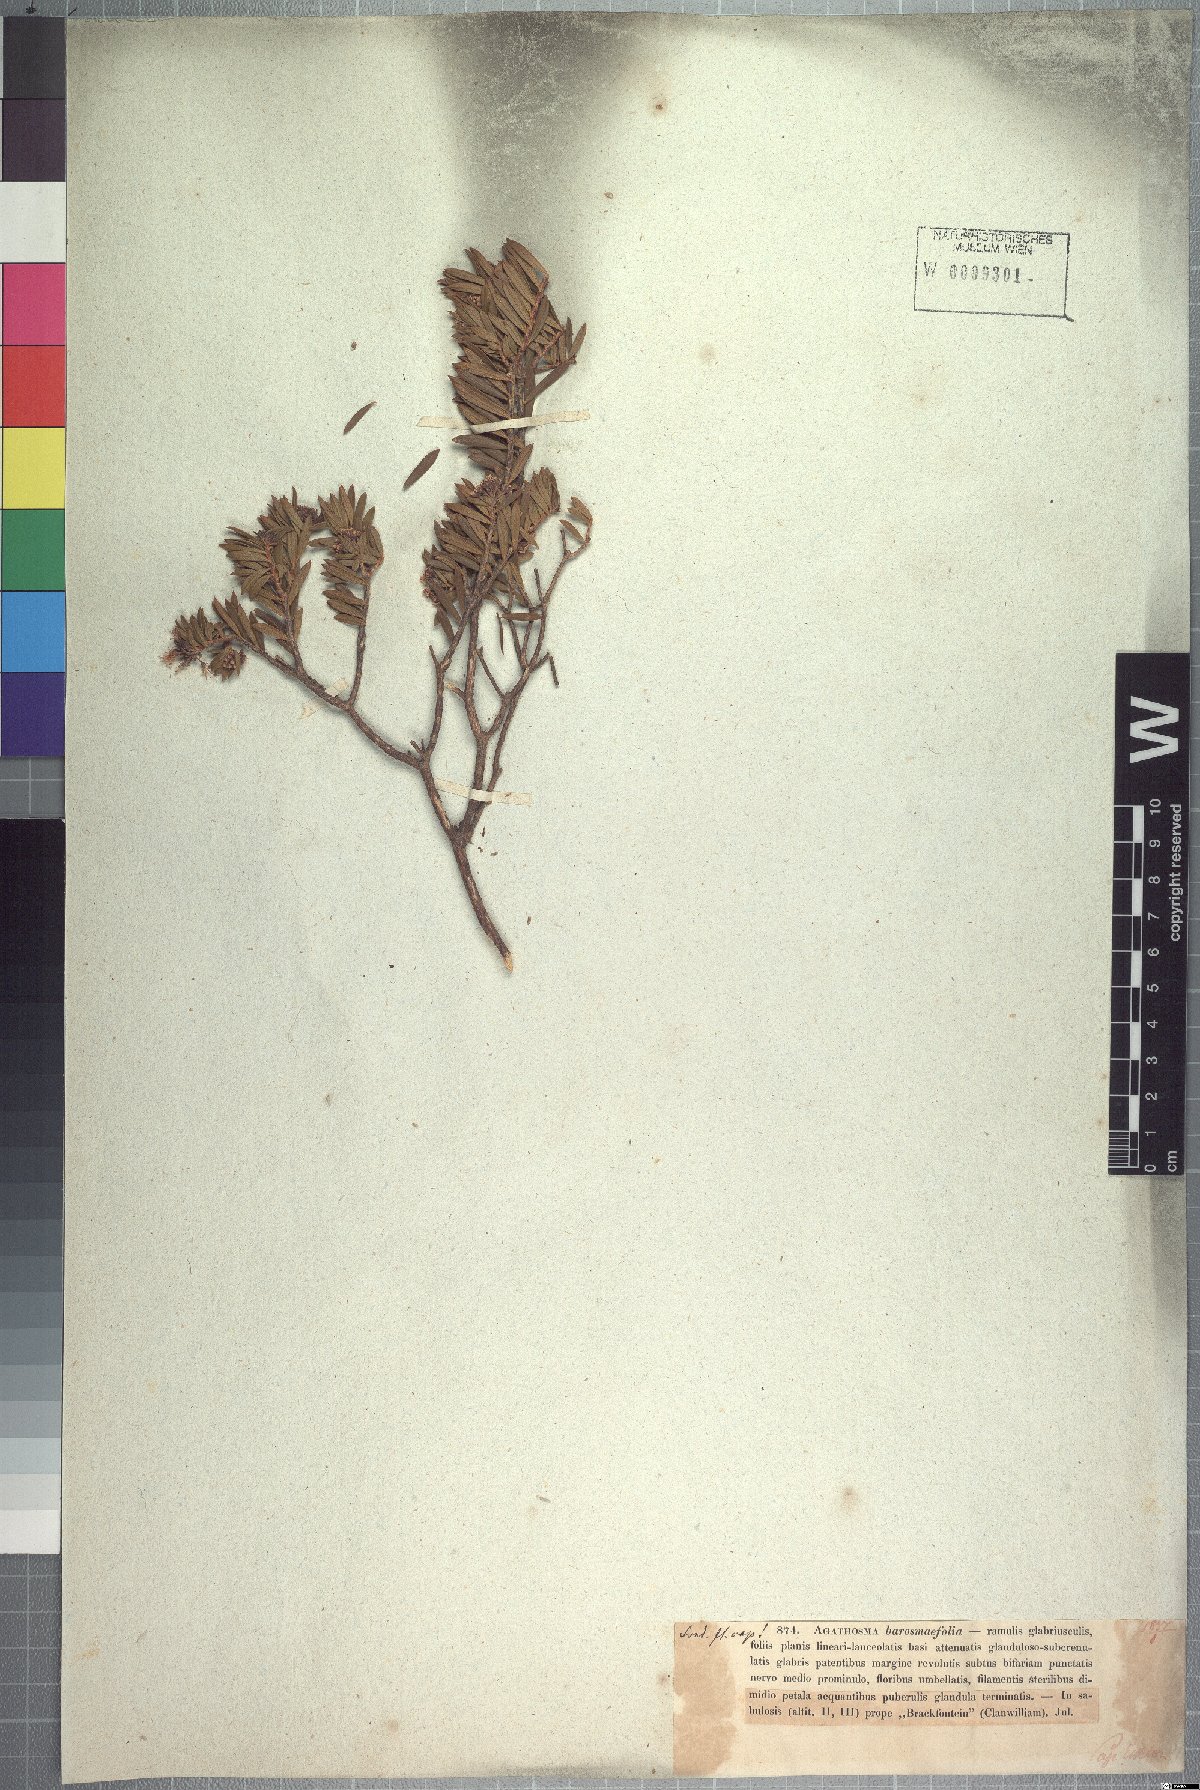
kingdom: Plantae
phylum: Tracheophyta
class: Magnoliopsida
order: Sapindales
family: Rutaceae
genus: Agathosma
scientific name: Agathosma bisulca
